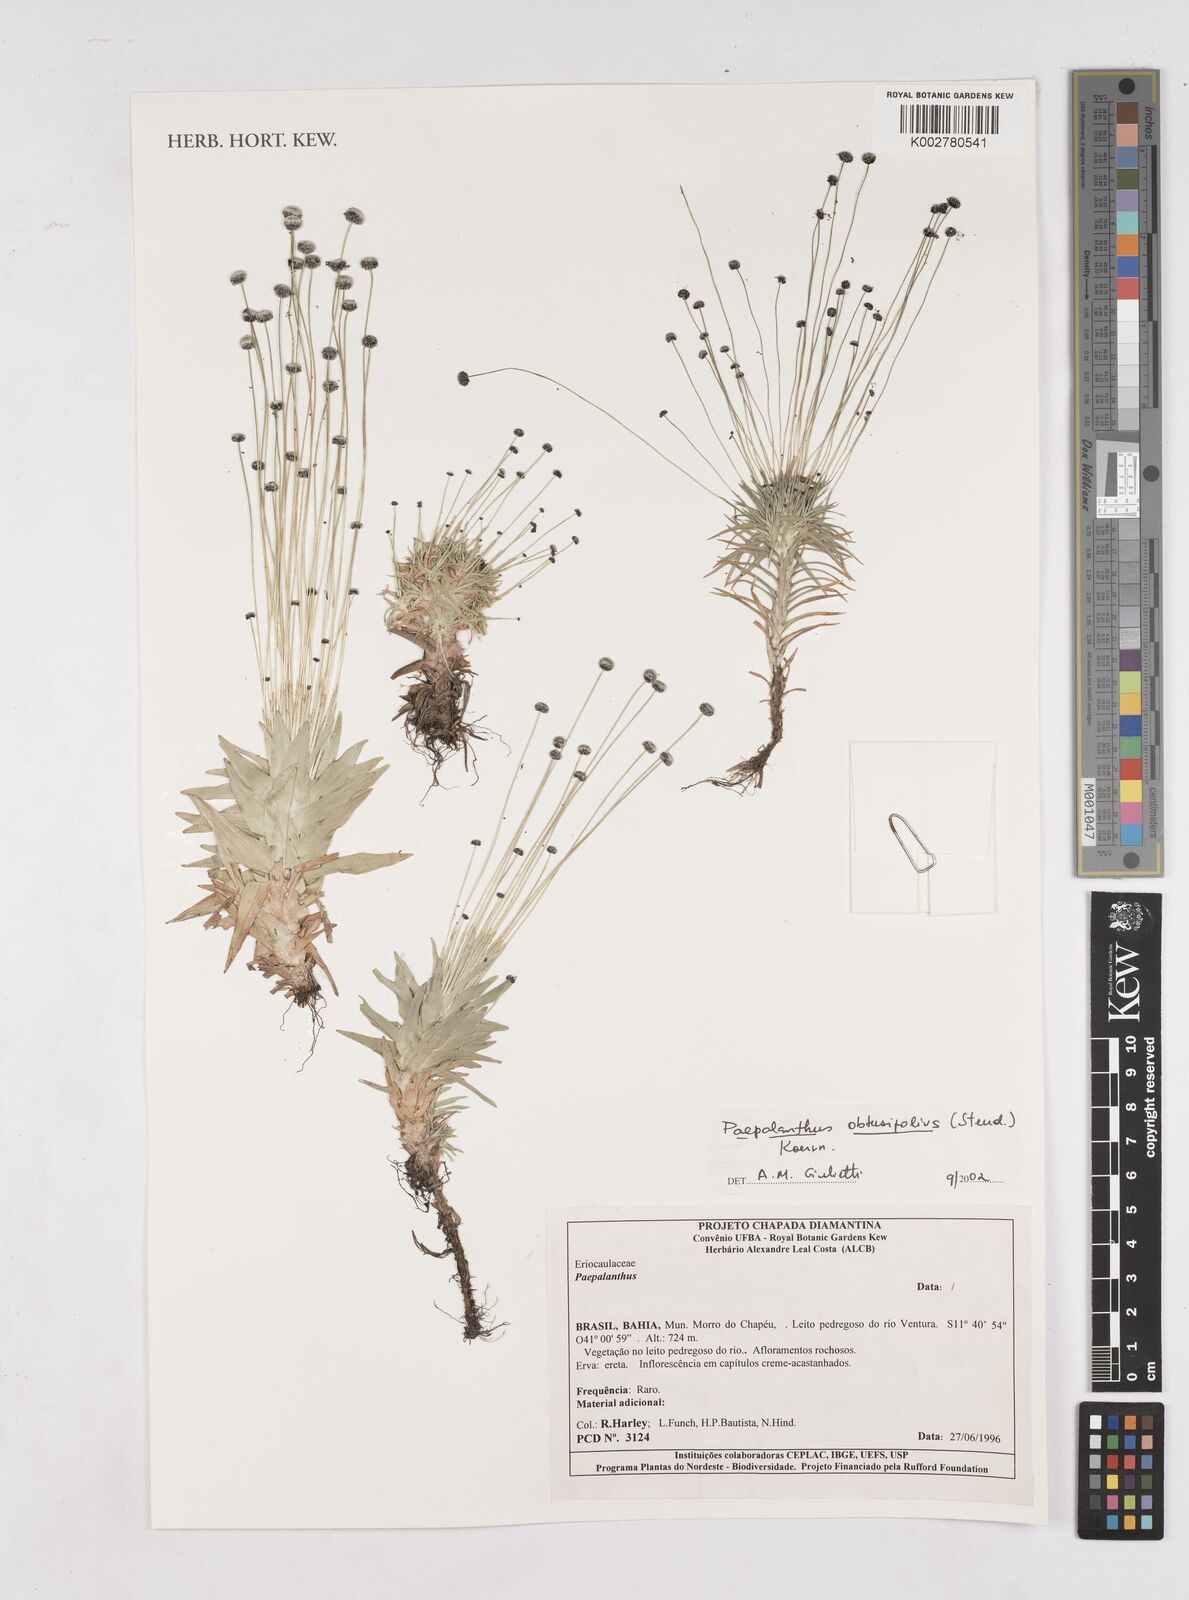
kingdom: Plantae
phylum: Tracheophyta
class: Liliopsida
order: Poales
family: Eriocaulaceae
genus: Paepalanthus
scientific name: Paepalanthus obtusifolius
